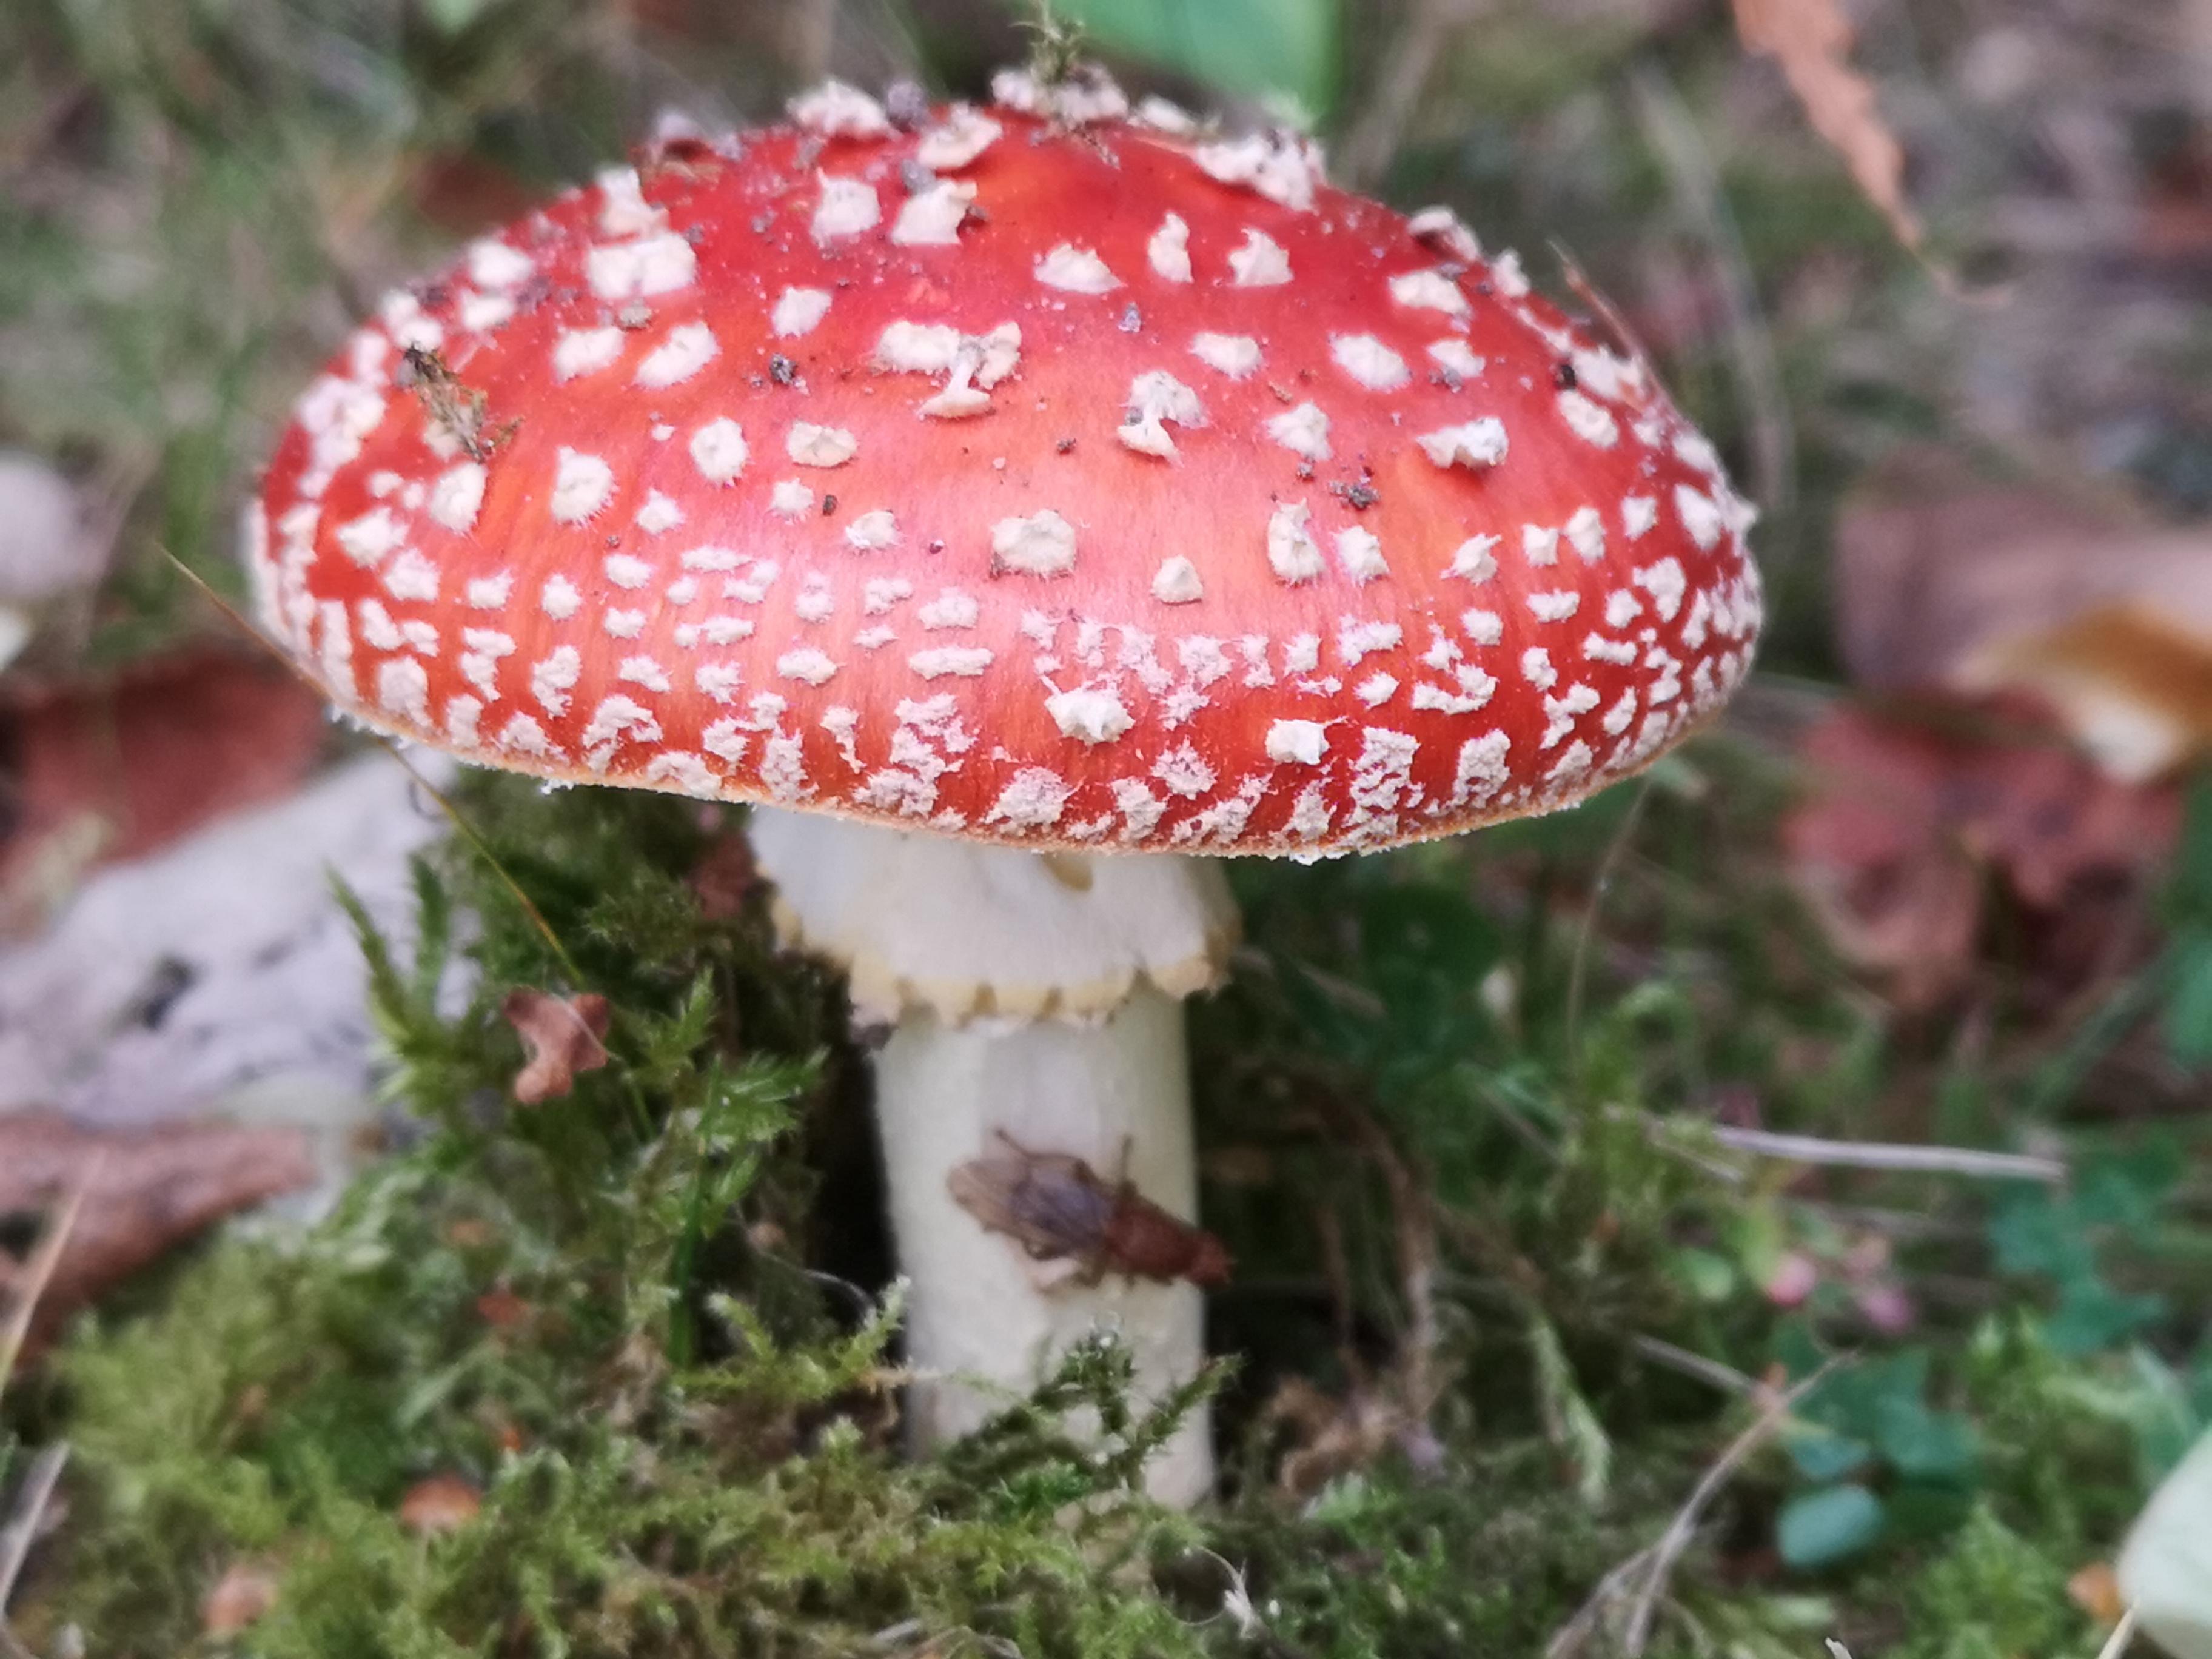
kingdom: Fungi
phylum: Basidiomycota
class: Agaricomycetes
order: Agaricales
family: Amanitaceae
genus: Amanita
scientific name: Amanita muscaria
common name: rød fluesvamp
